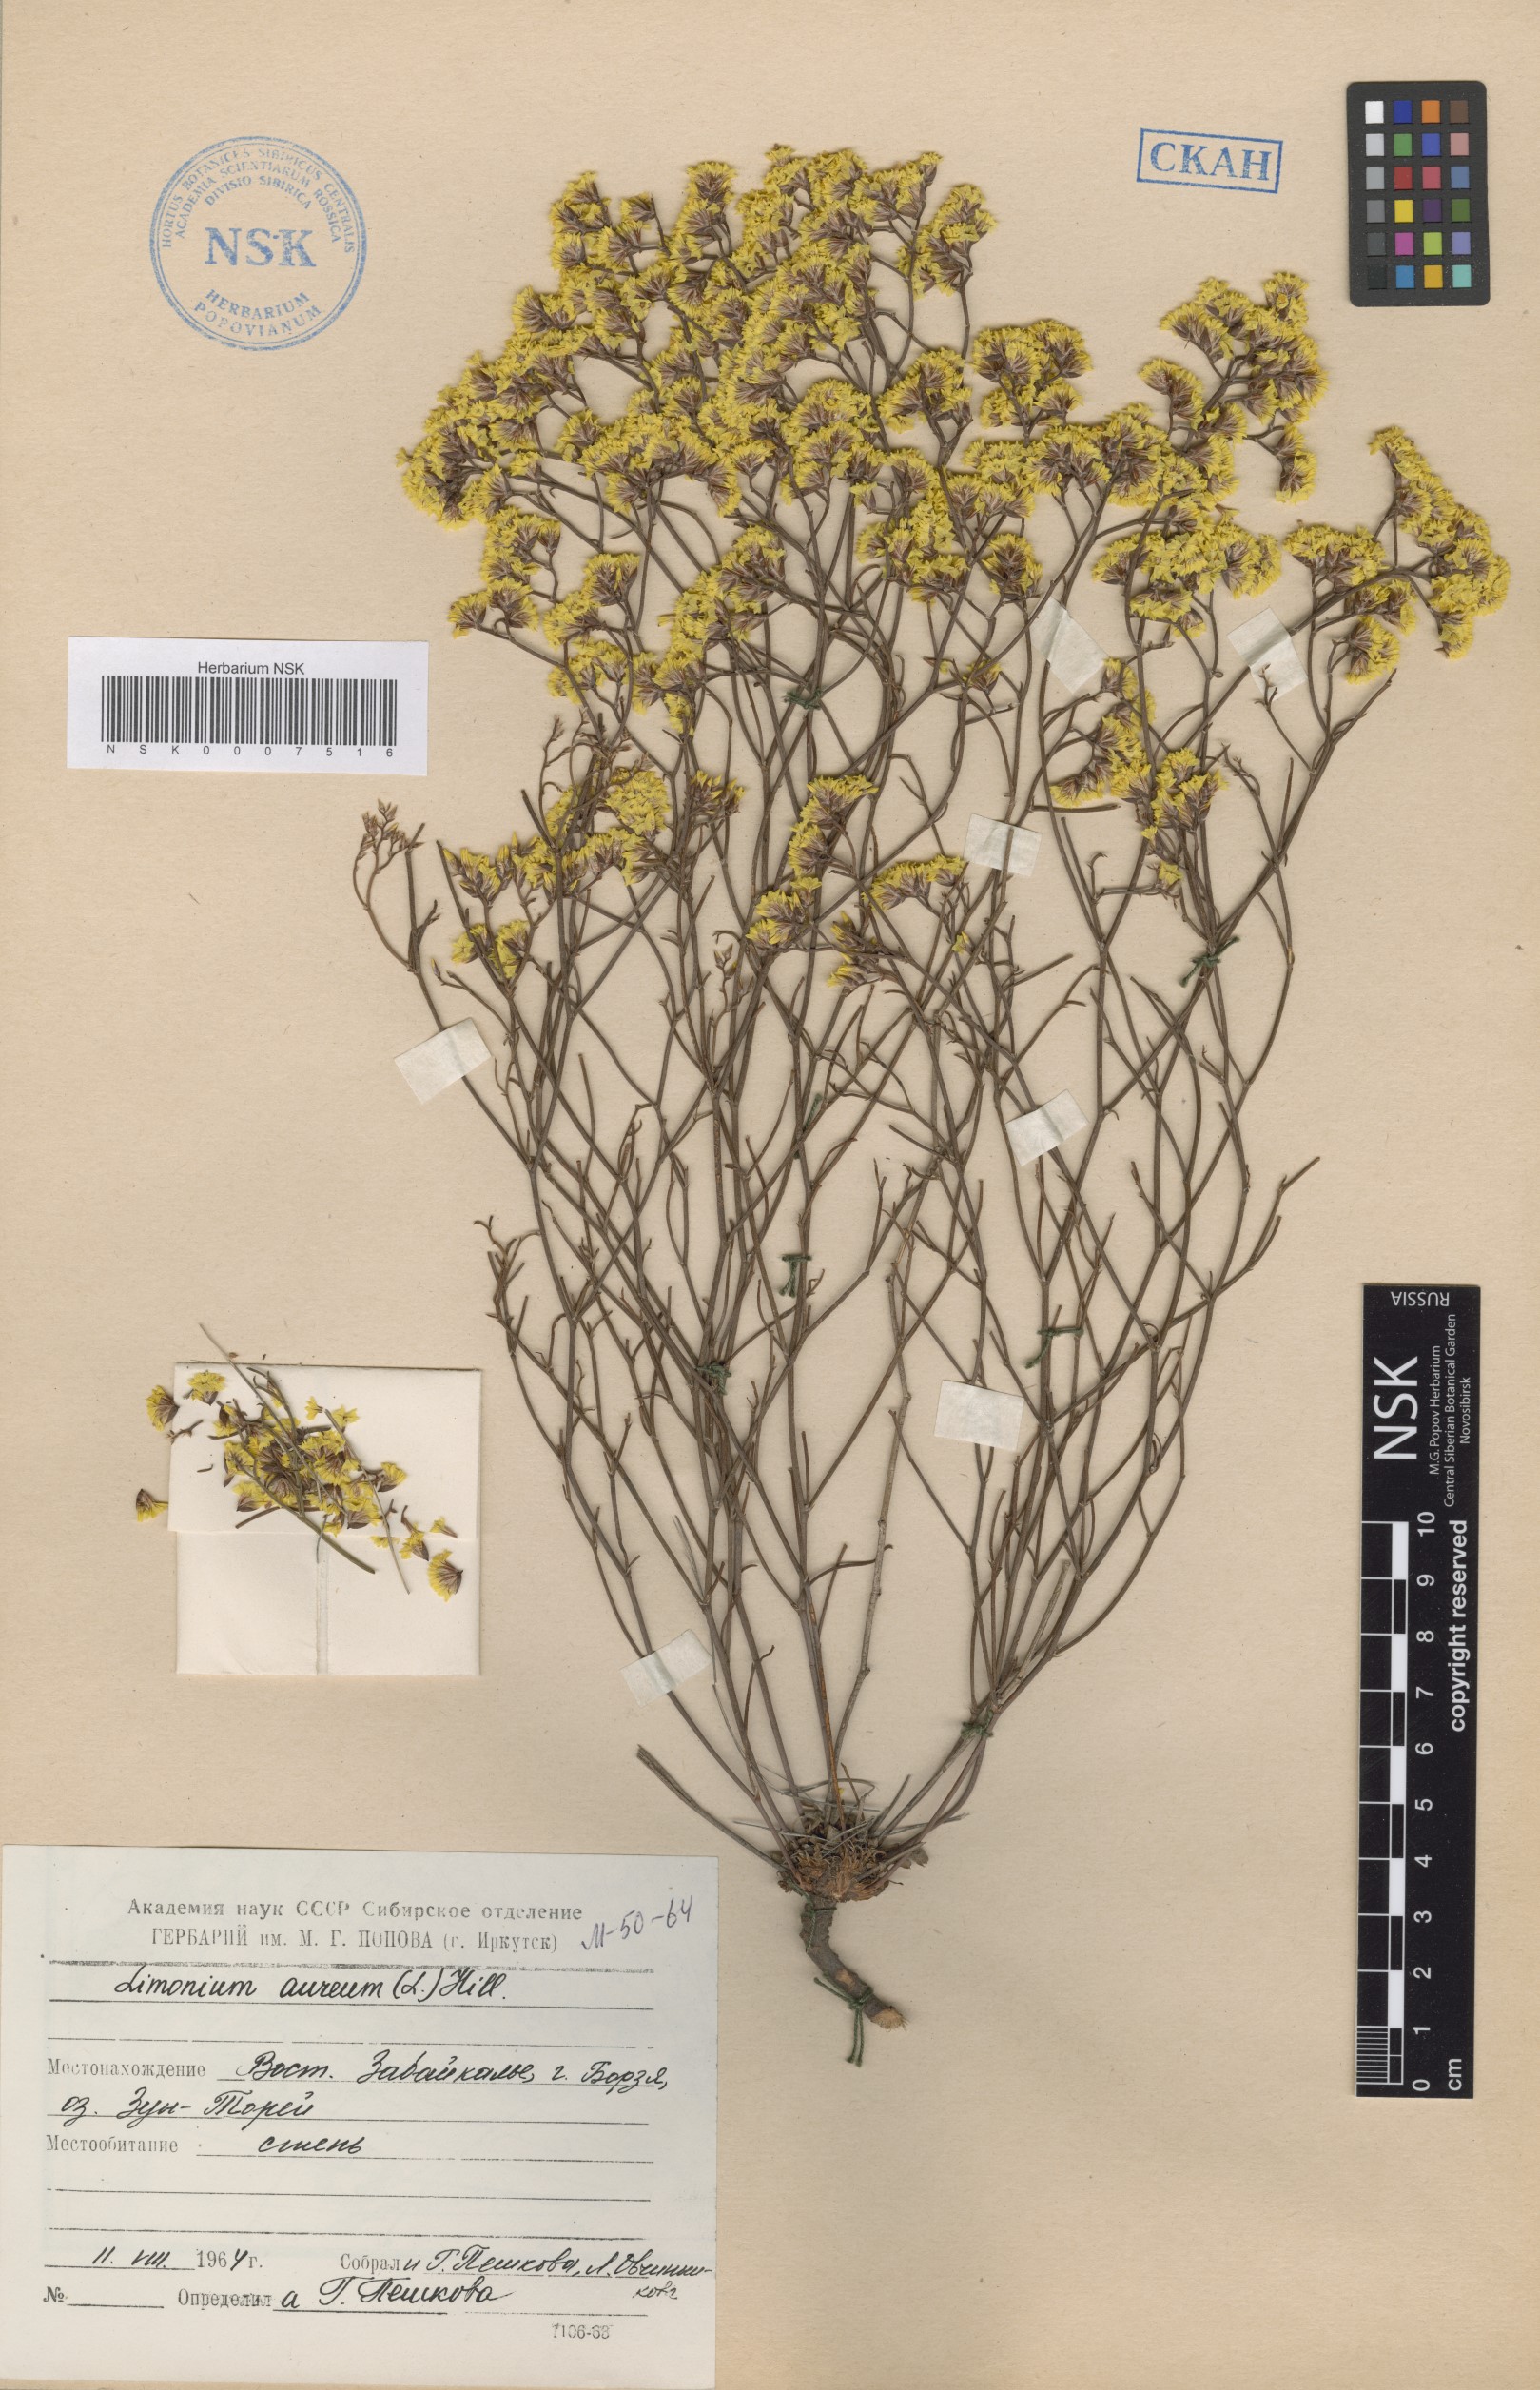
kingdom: Plantae
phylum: Tracheophyta
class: Magnoliopsida
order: Caryophyllales
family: Plumbaginaceae
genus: Limonium
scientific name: Limonium aureum
